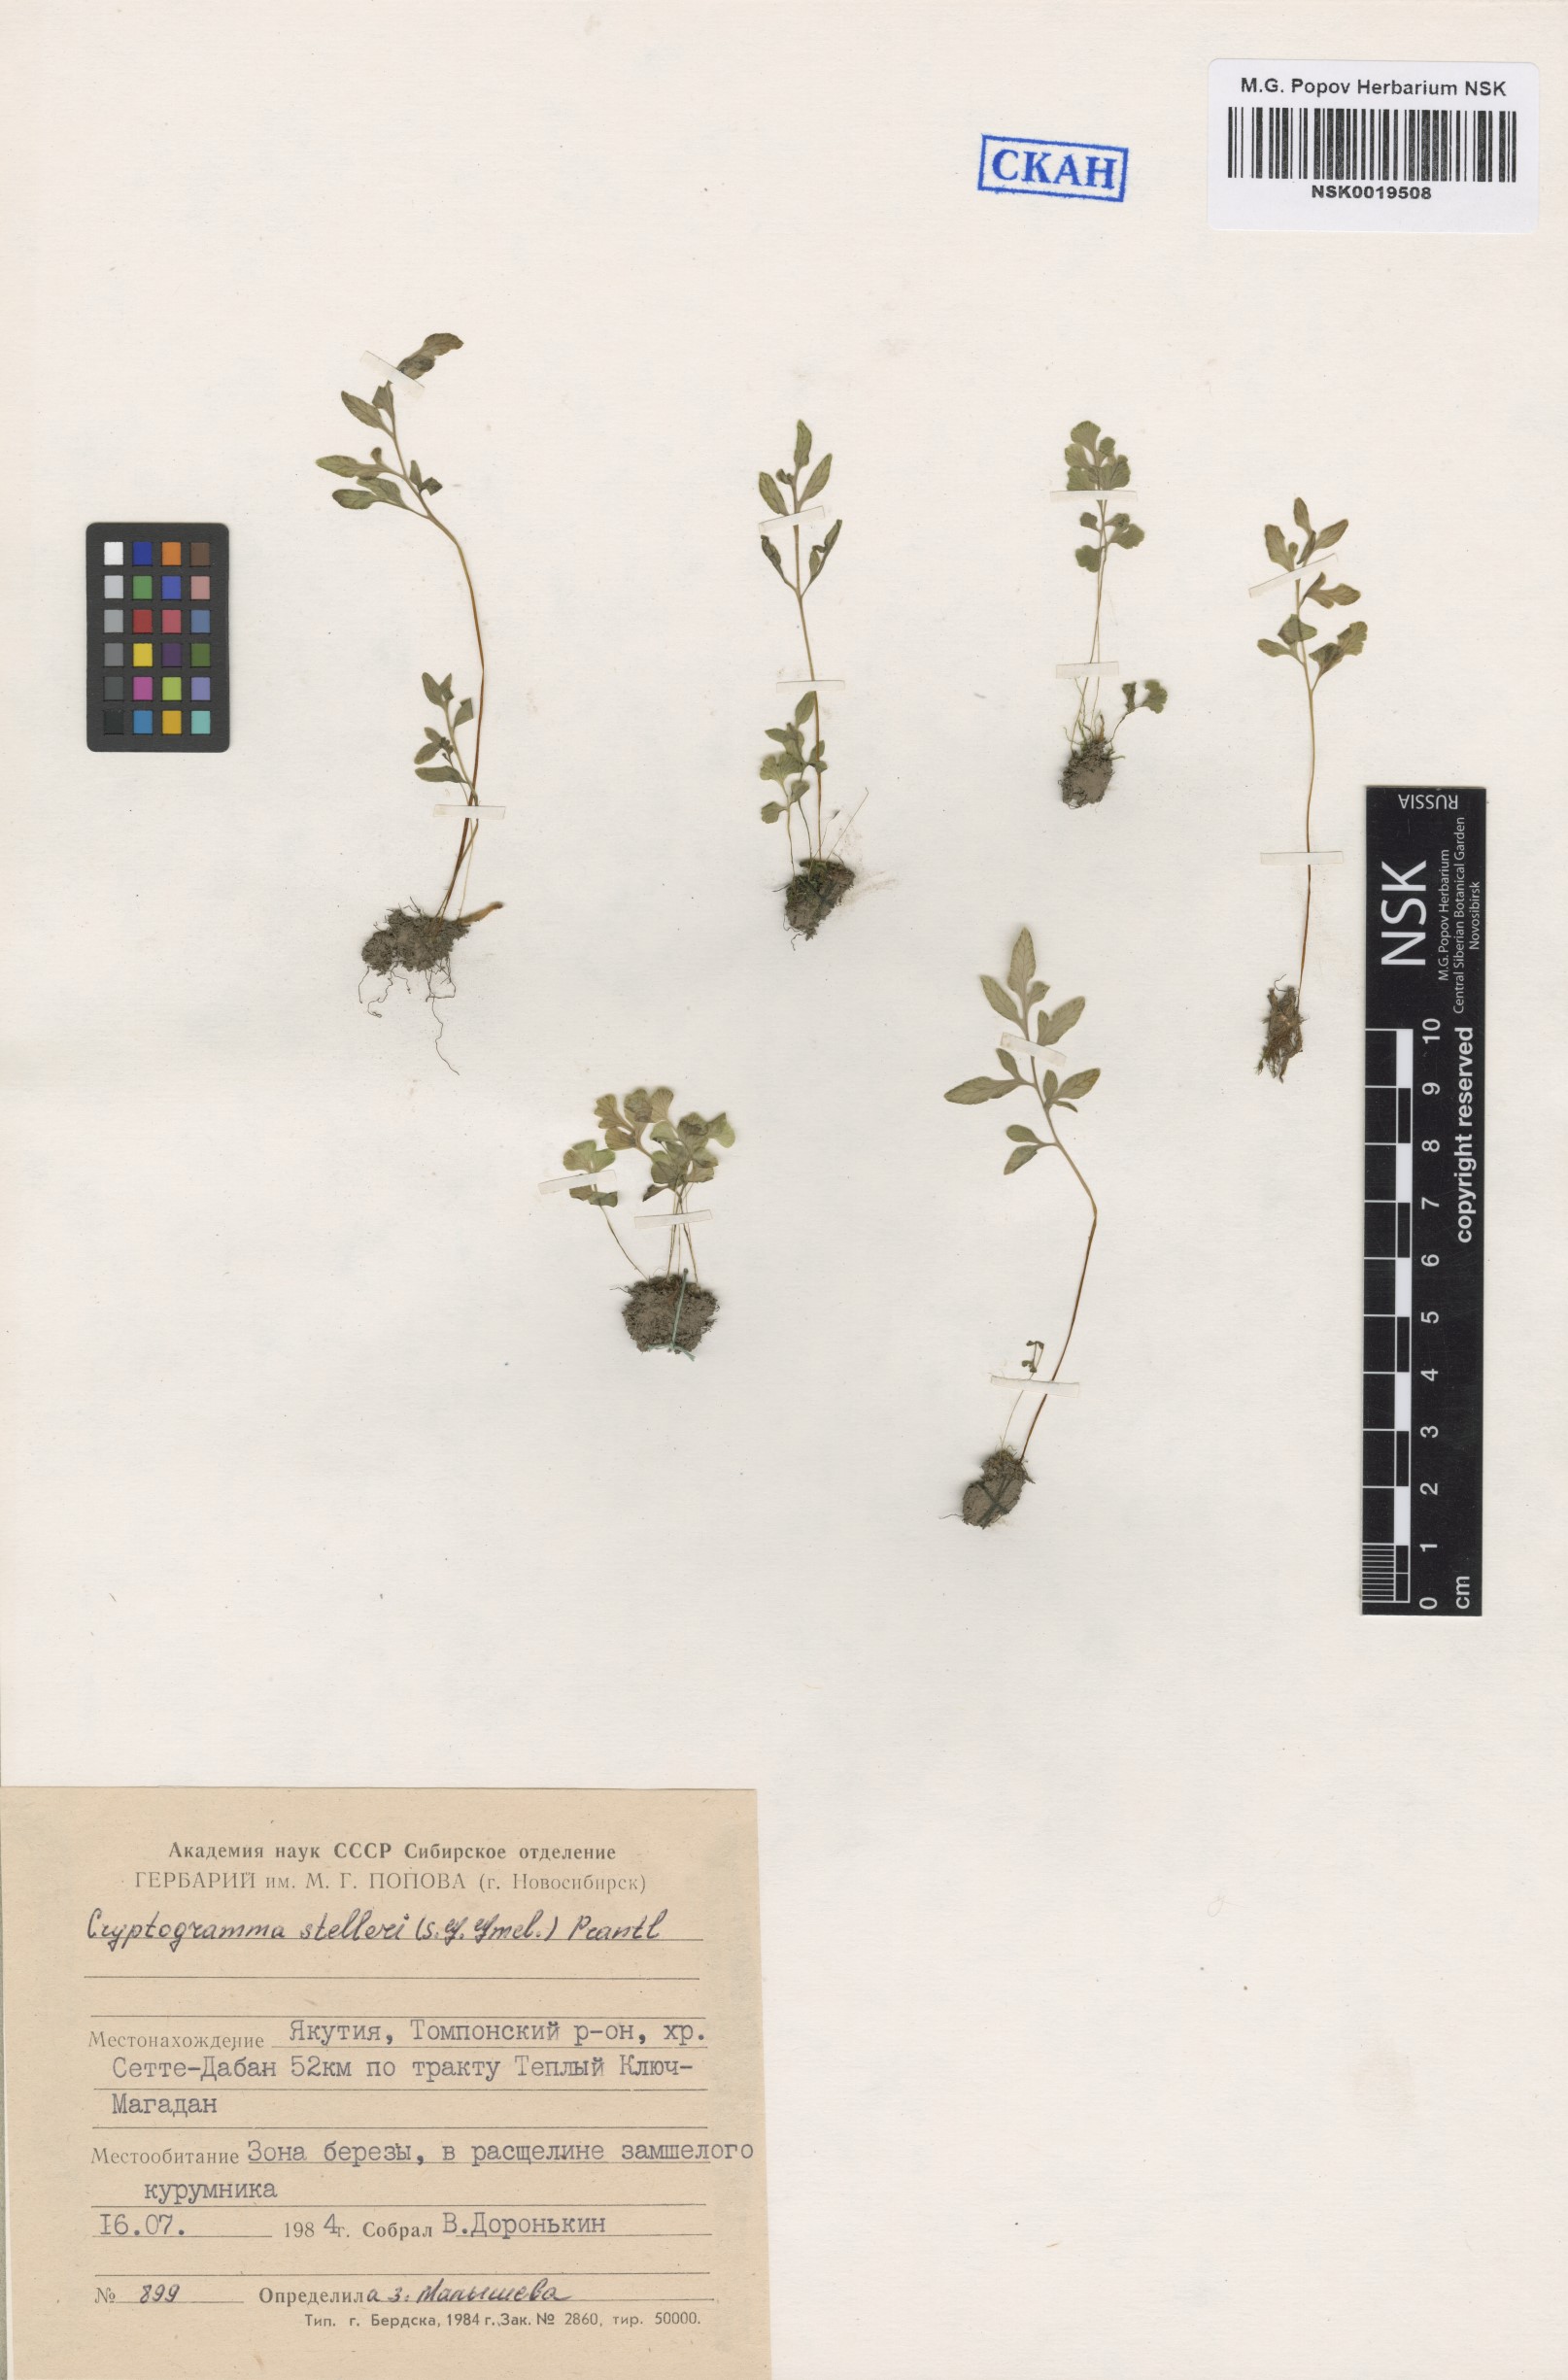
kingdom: Plantae
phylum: Tracheophyta
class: Polypodiopsida
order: Polypodiales
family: Pteridaceae
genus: Cryptogramma
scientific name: Cryptogramma stelleri
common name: Cliff-brake
